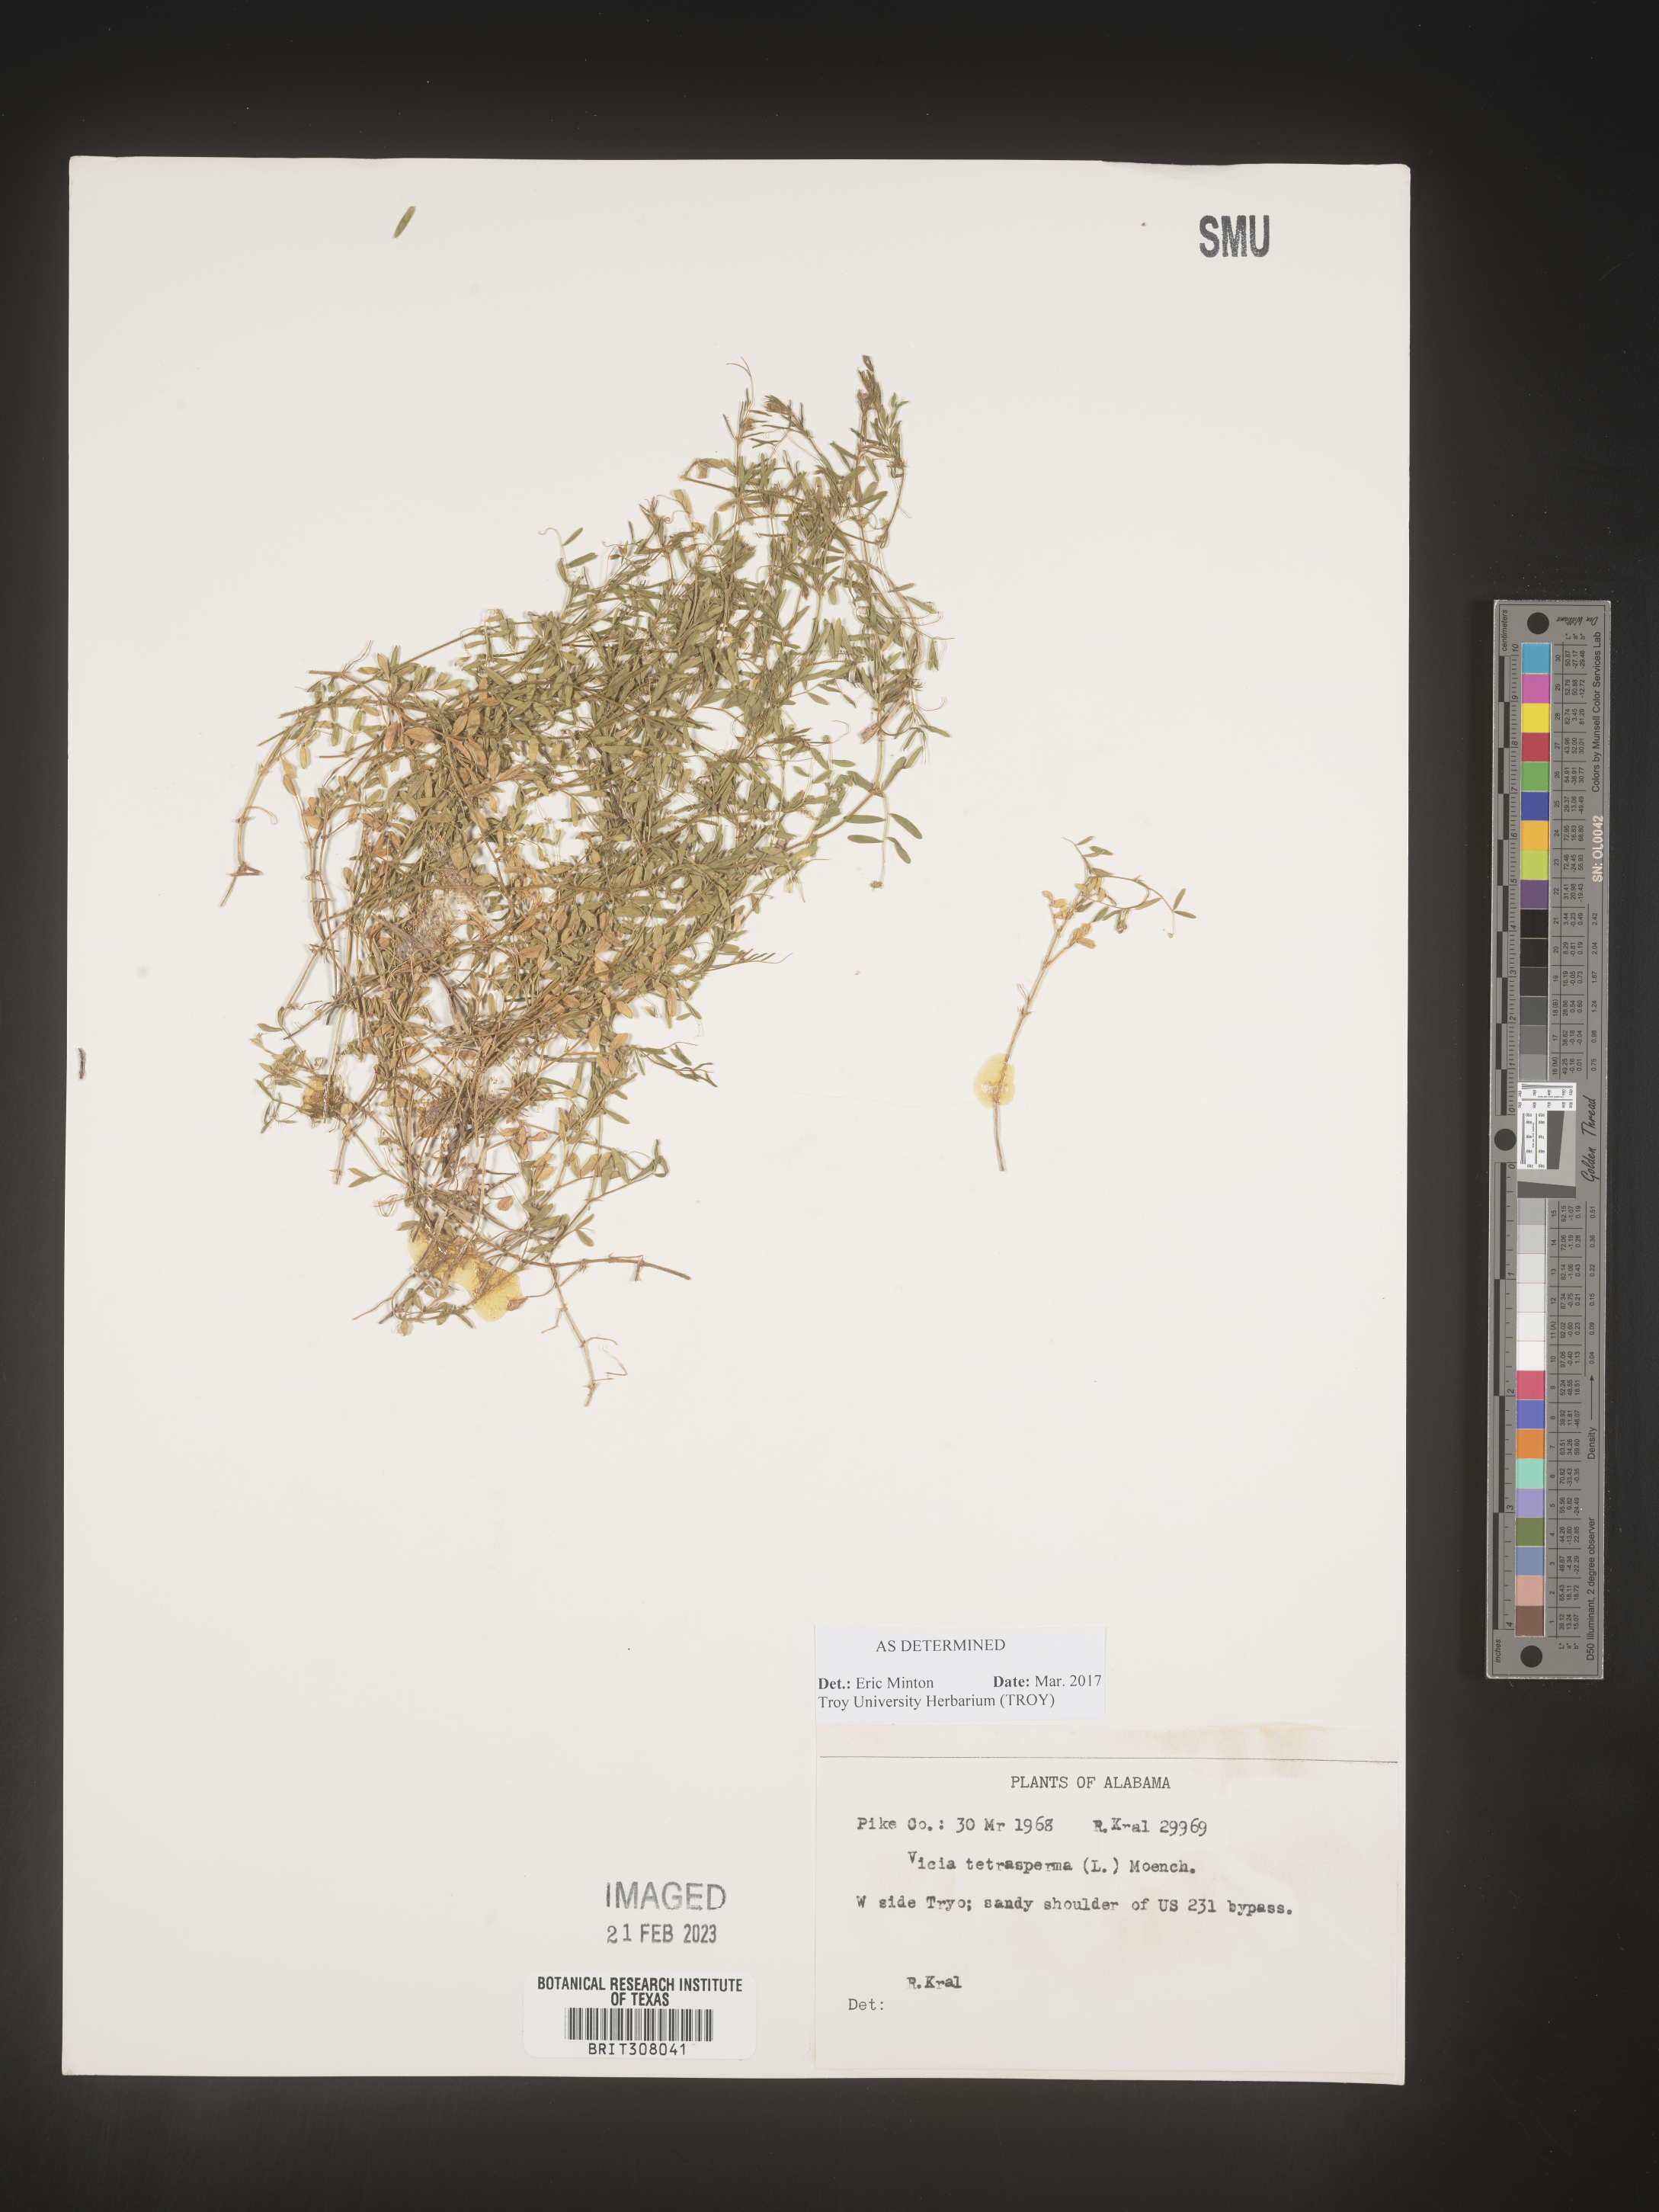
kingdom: Plantae
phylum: Tracheophyta
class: Magnoliopsida
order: Fabales
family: Fabaceae
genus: Vicia
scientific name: Vicia tetrasperma
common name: Smooth tare
